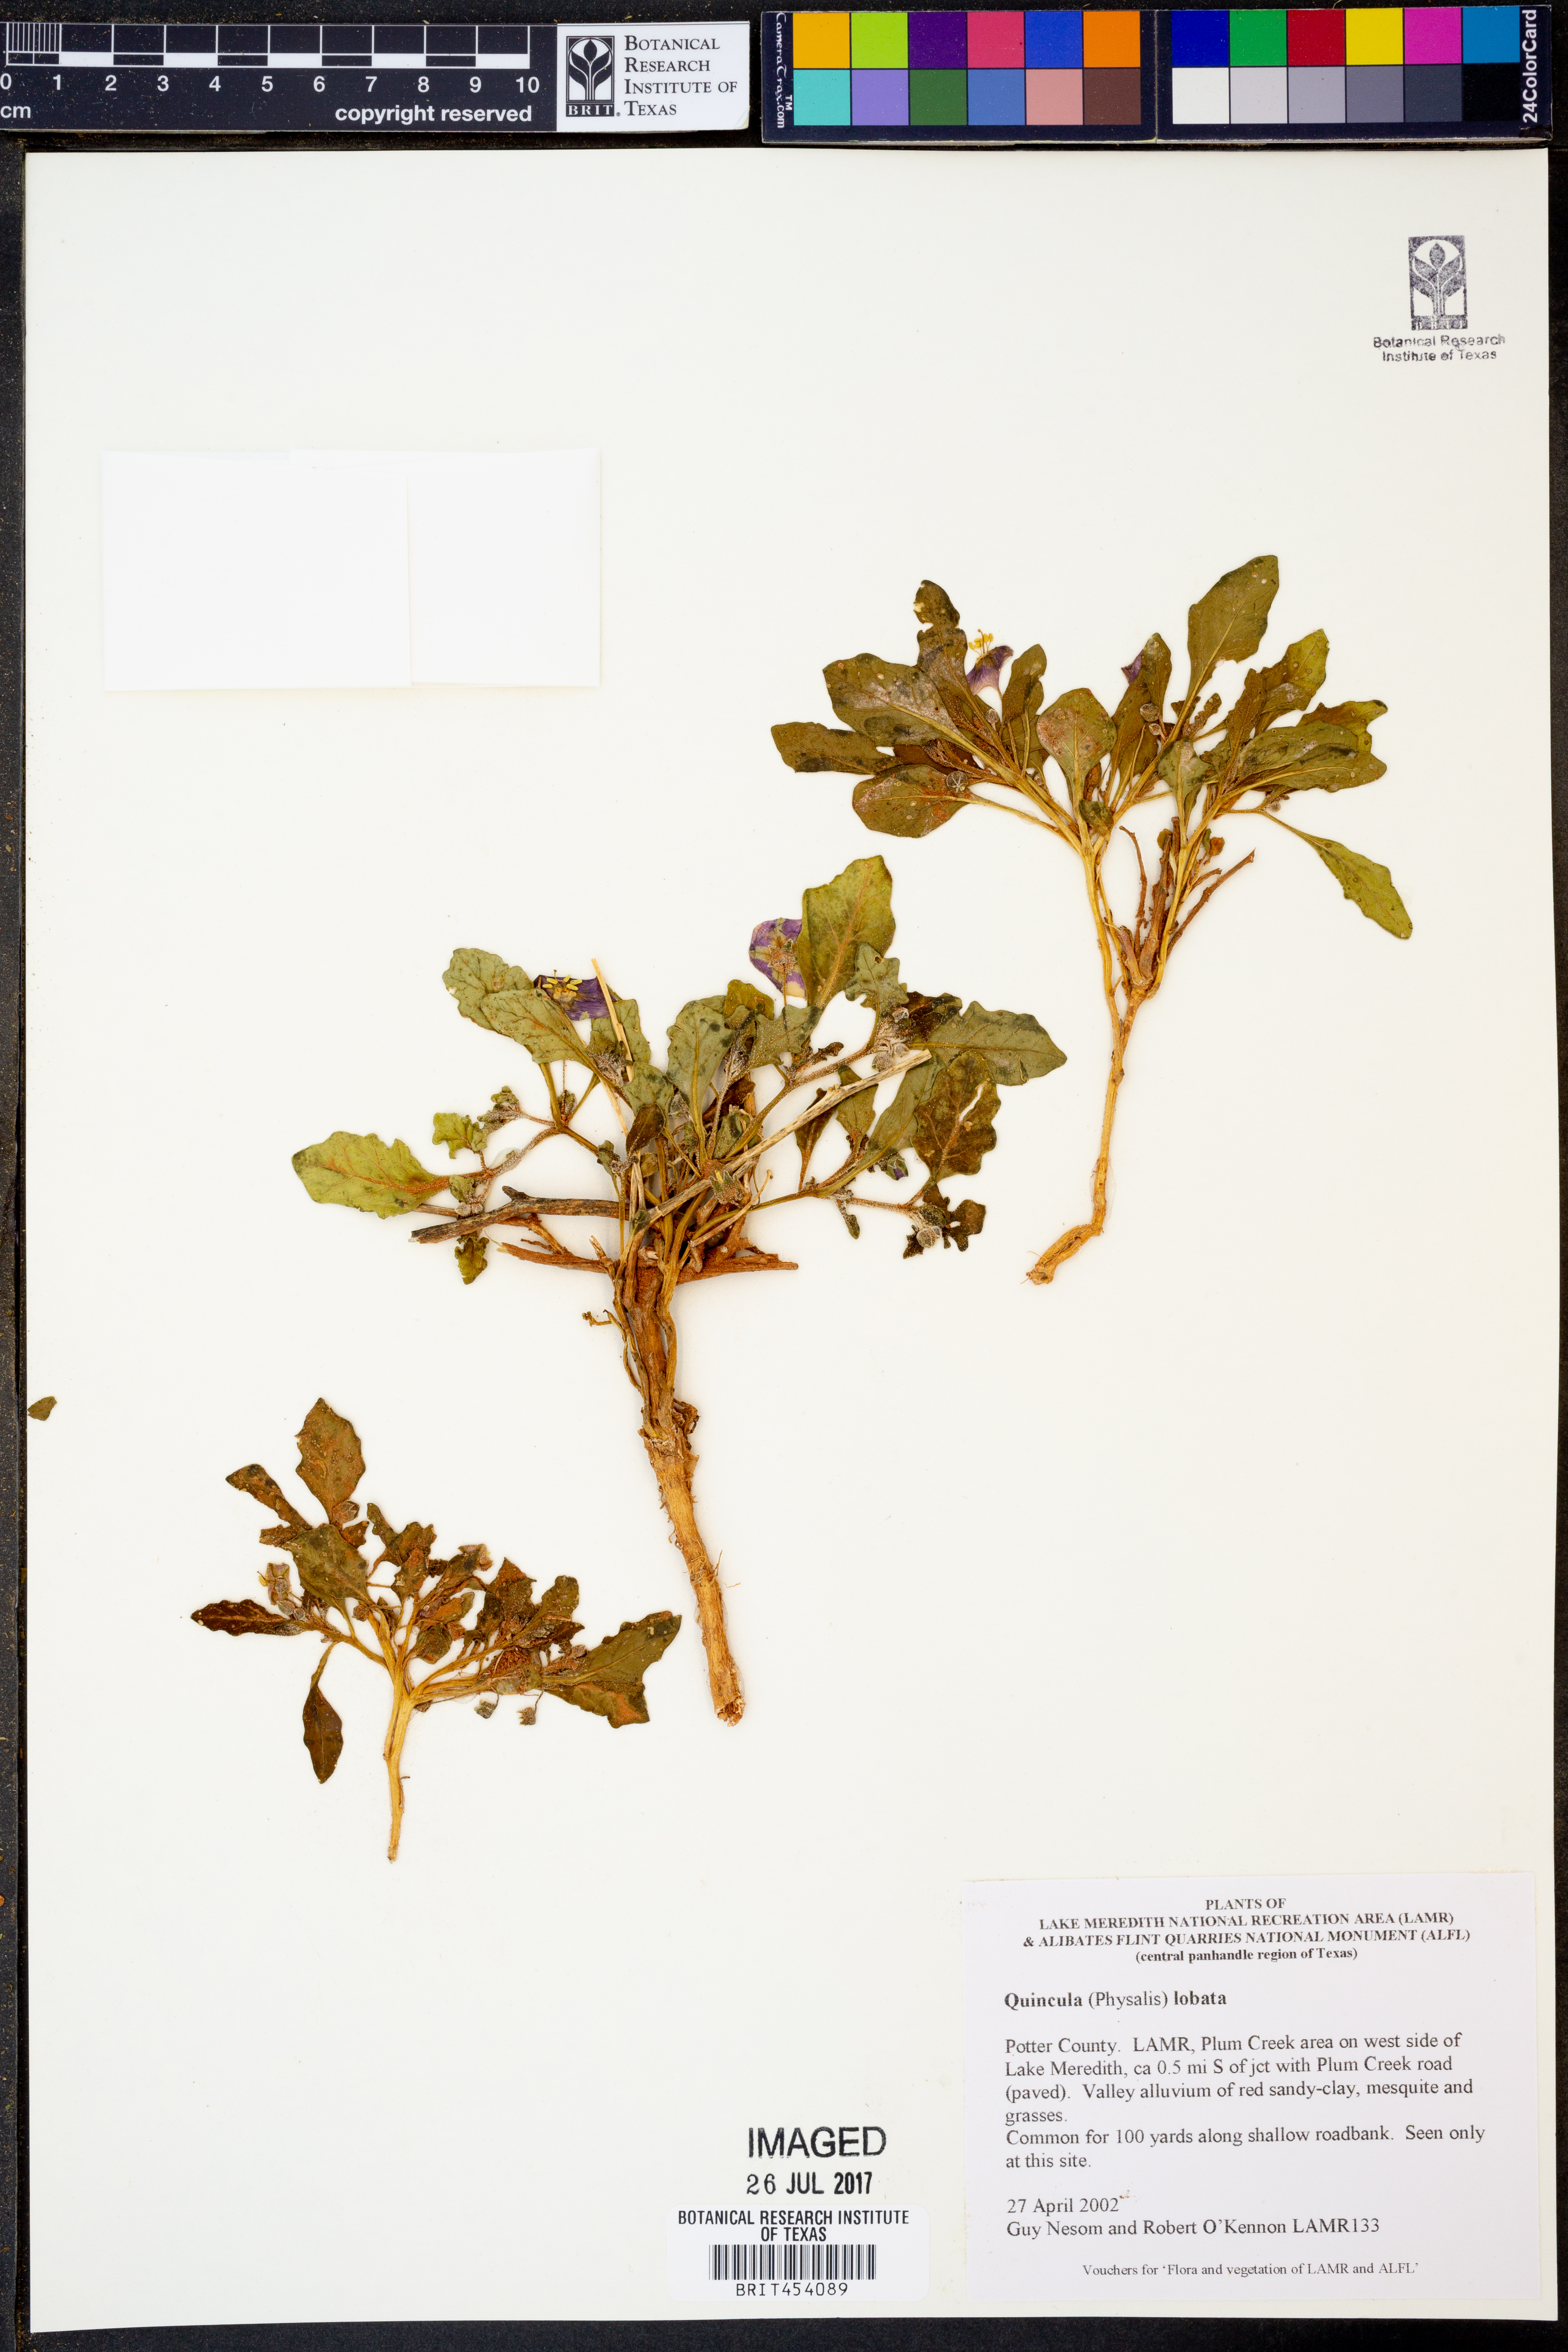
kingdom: Plantae
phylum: Tracheophyta
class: Magnoliopsida
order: Solanales
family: Solanaceae
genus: Quincula
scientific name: Quincula lobata
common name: Purple-ground-cherry
